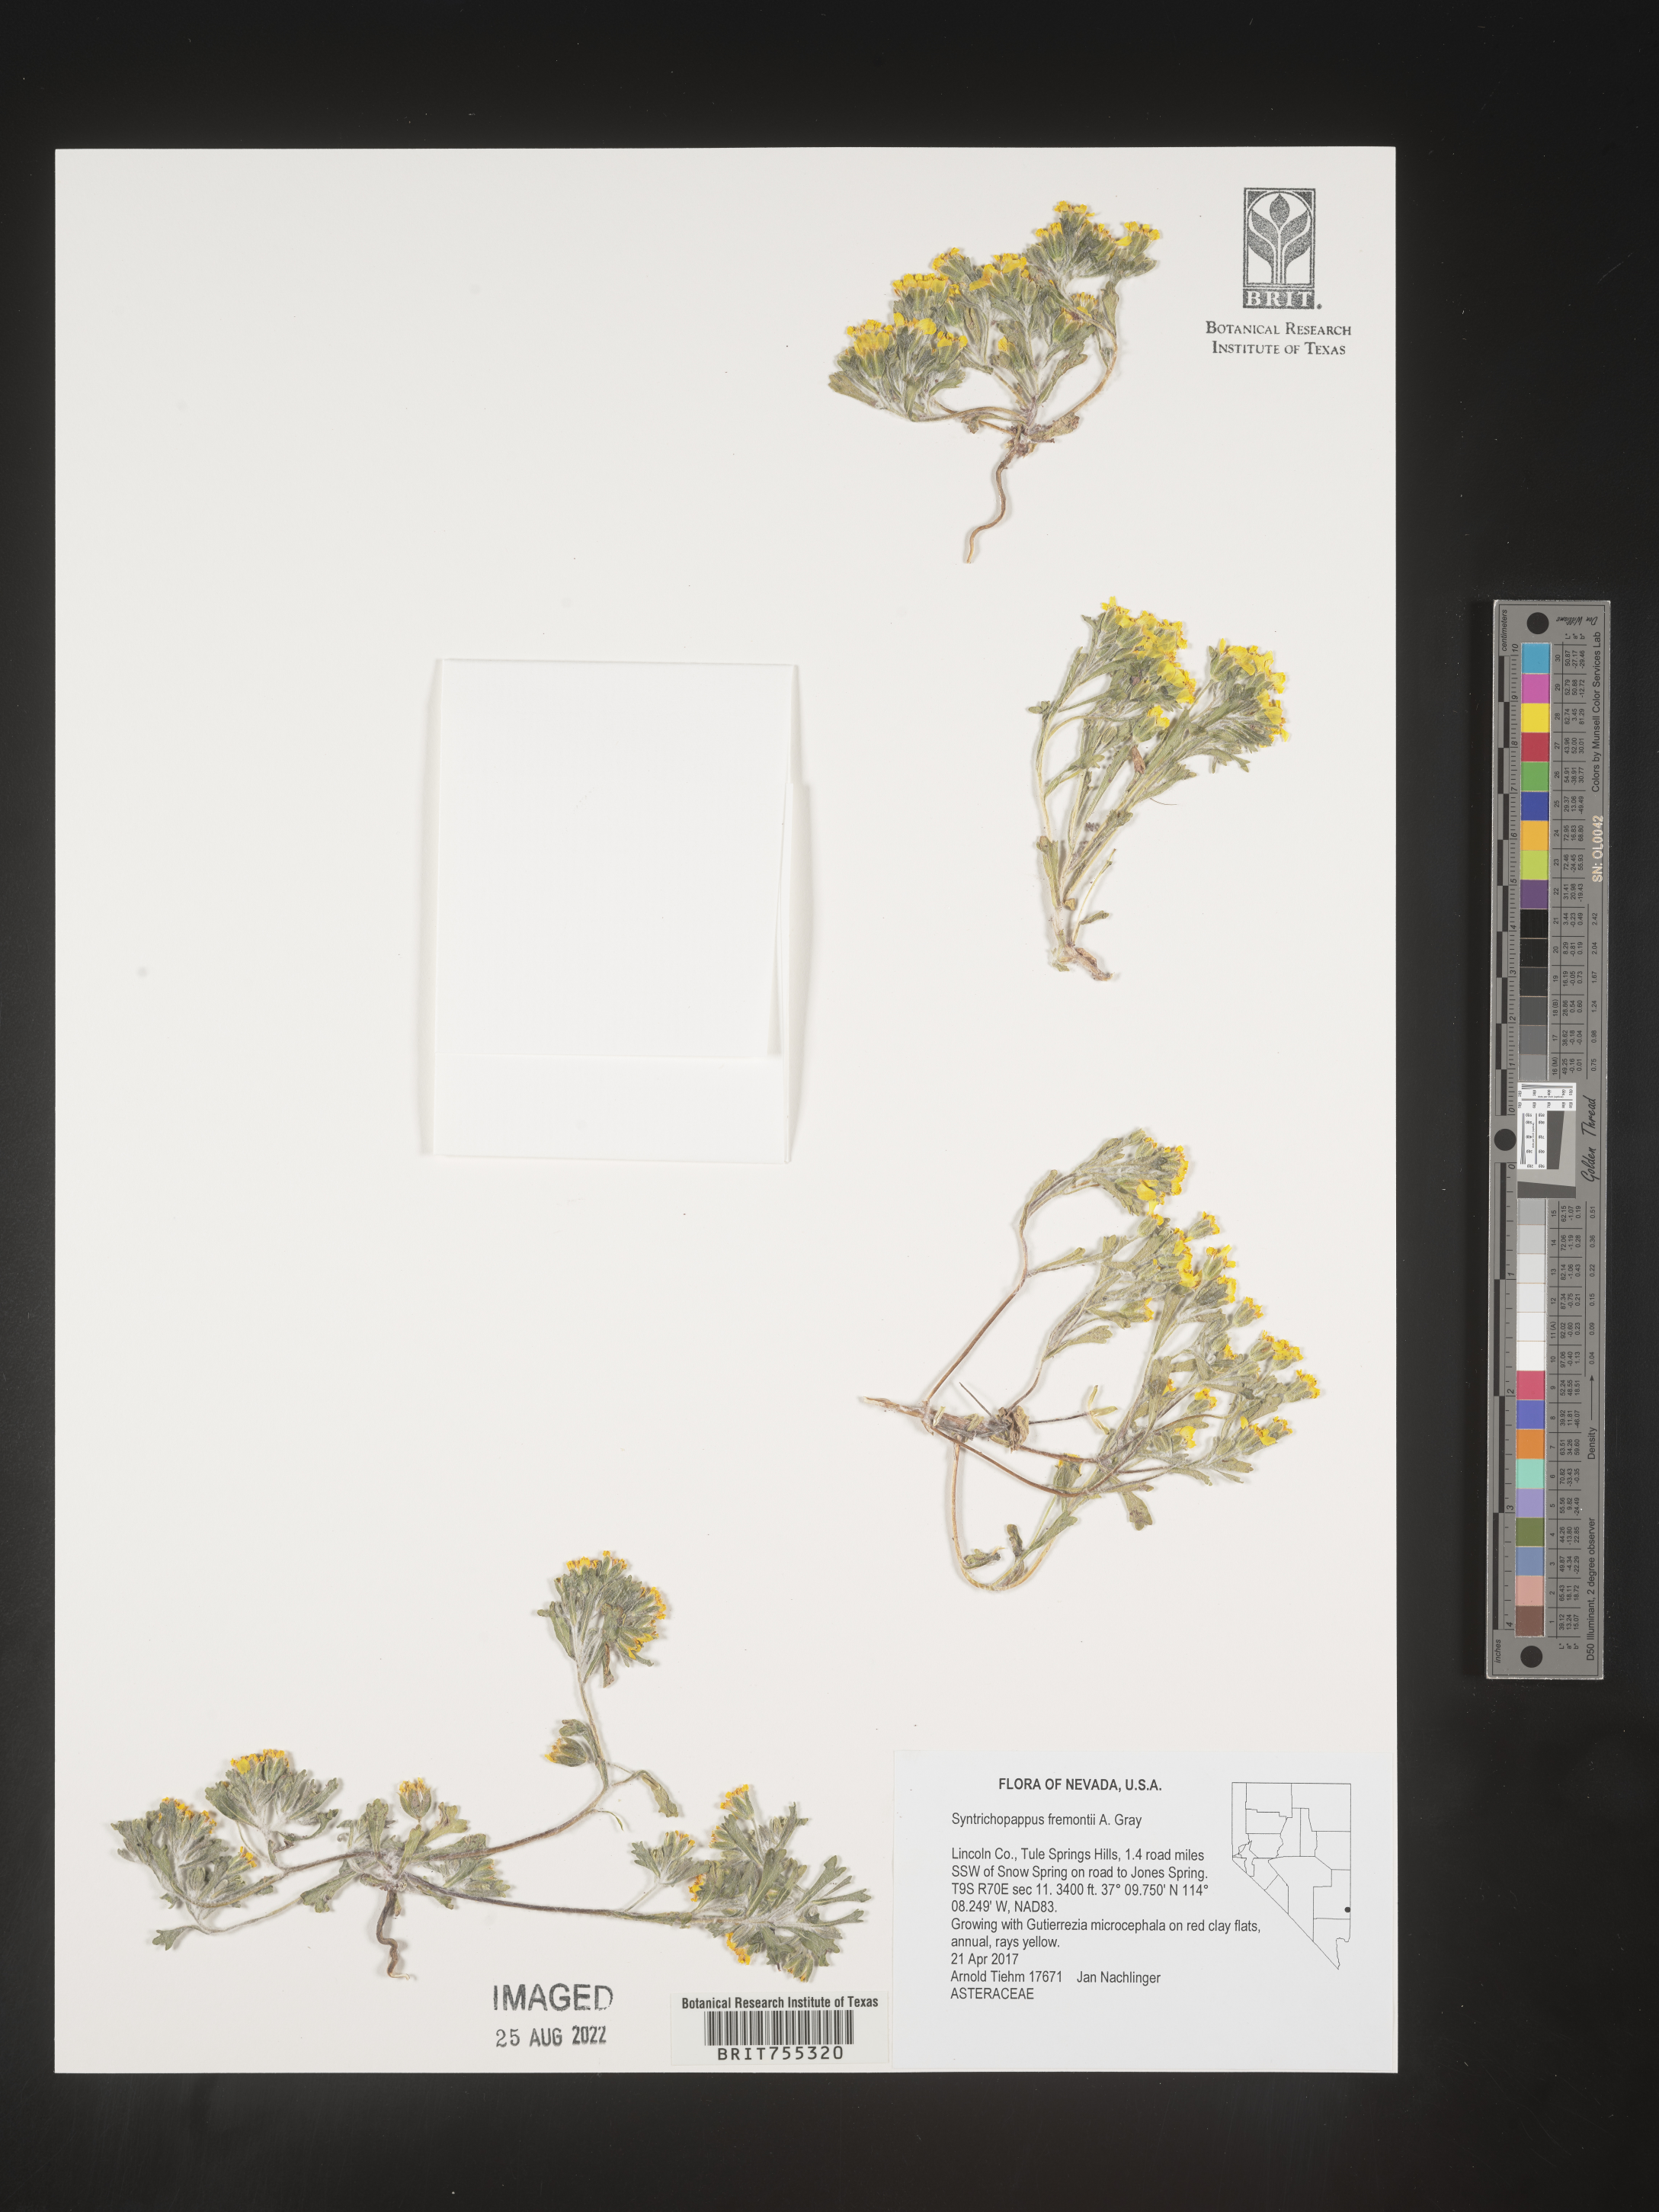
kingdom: Plantae
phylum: Tracheophyta
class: Magnoliopsida
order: Asterales
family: Asteraceae
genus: Syntrichopappus
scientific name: Syntrichopappus
